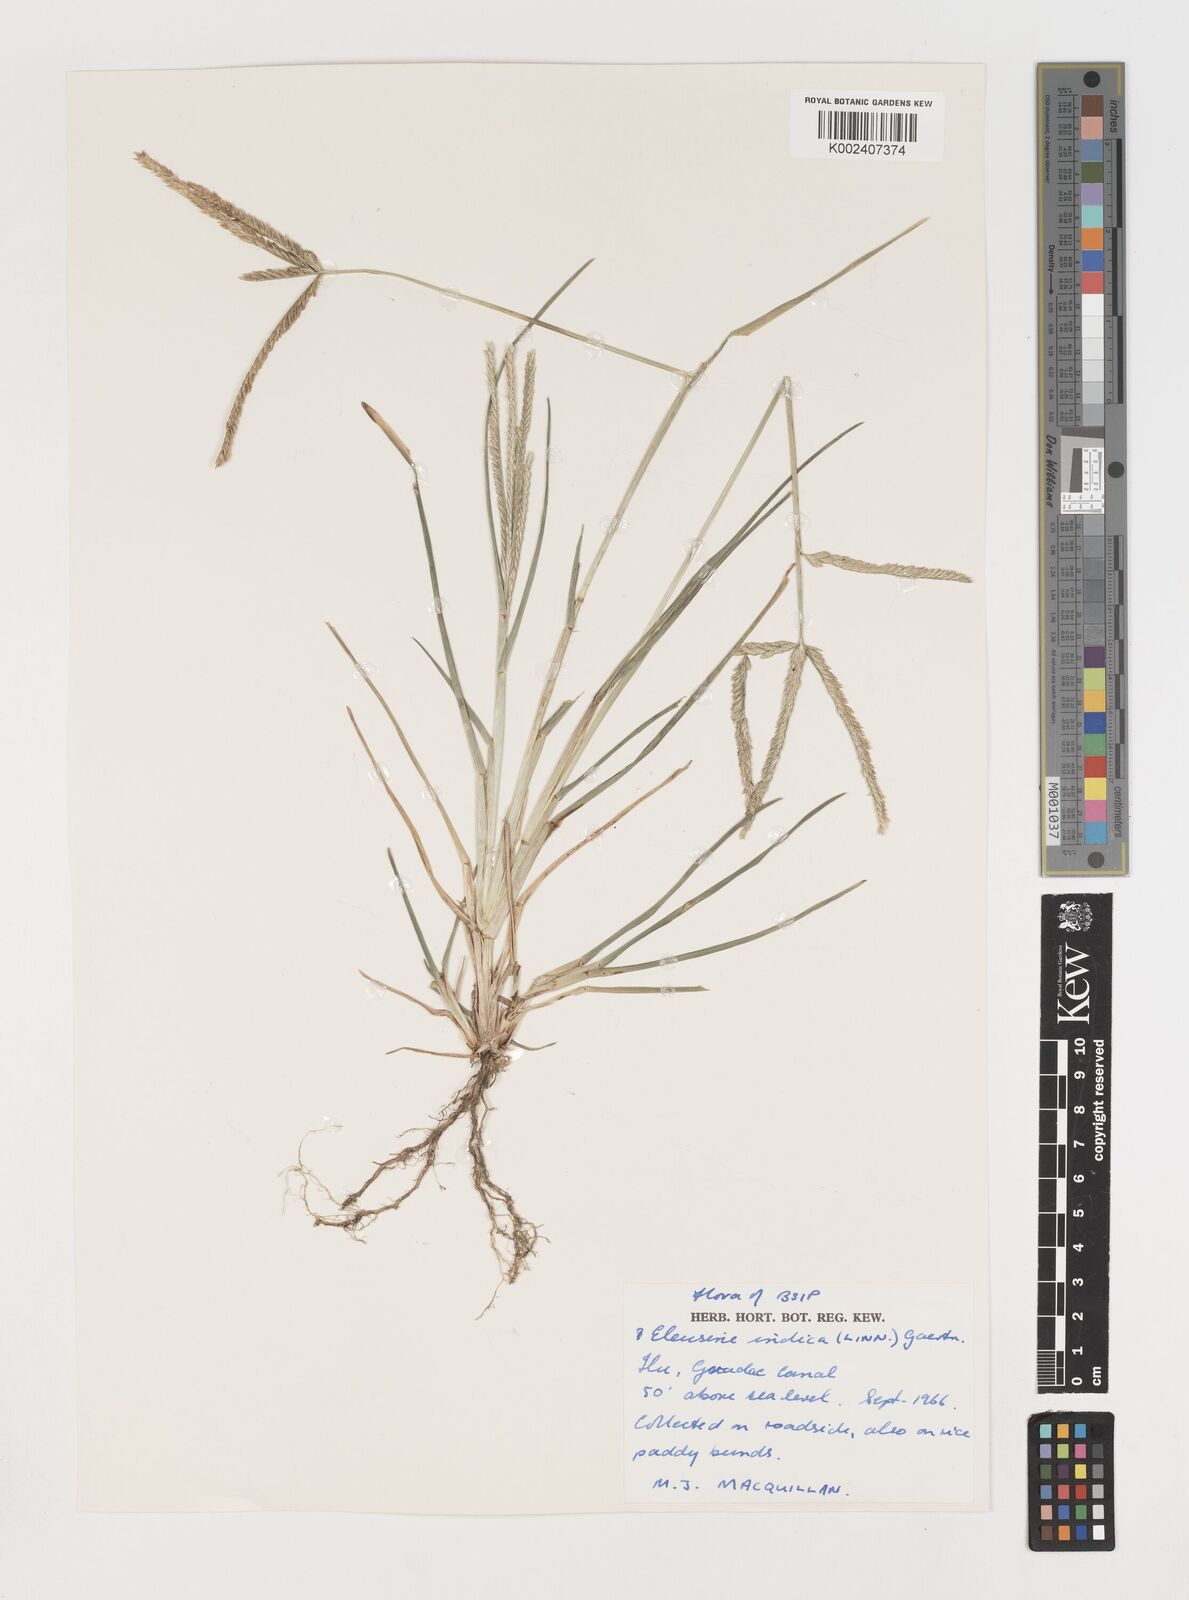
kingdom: Plantae
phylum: Tracheophyta
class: Liliopsida
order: Poales
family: Poaceae
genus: Eleusine
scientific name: Eleusine indica
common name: Yard-grass
